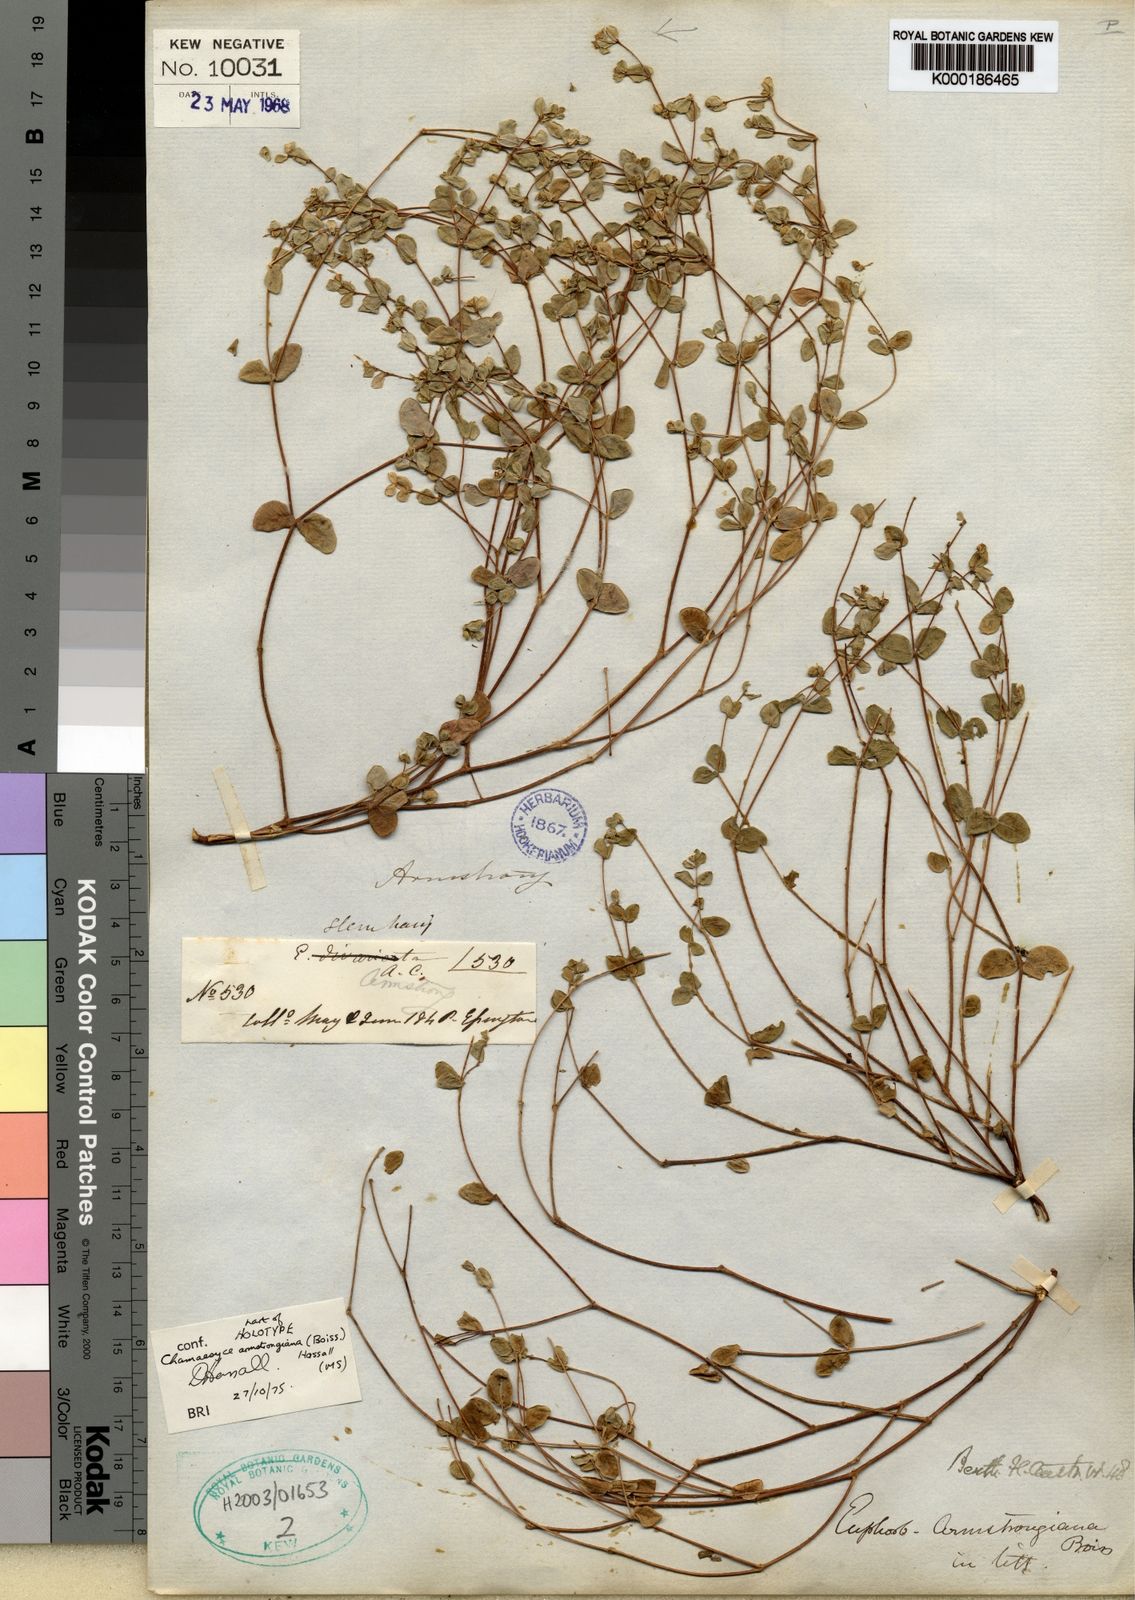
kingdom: Plantae
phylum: Tracheophyta
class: Magnoliopsida
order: Malpighiales
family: Euphorbiaceae
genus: Euphorbia
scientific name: Euphorbia armstrongiana
